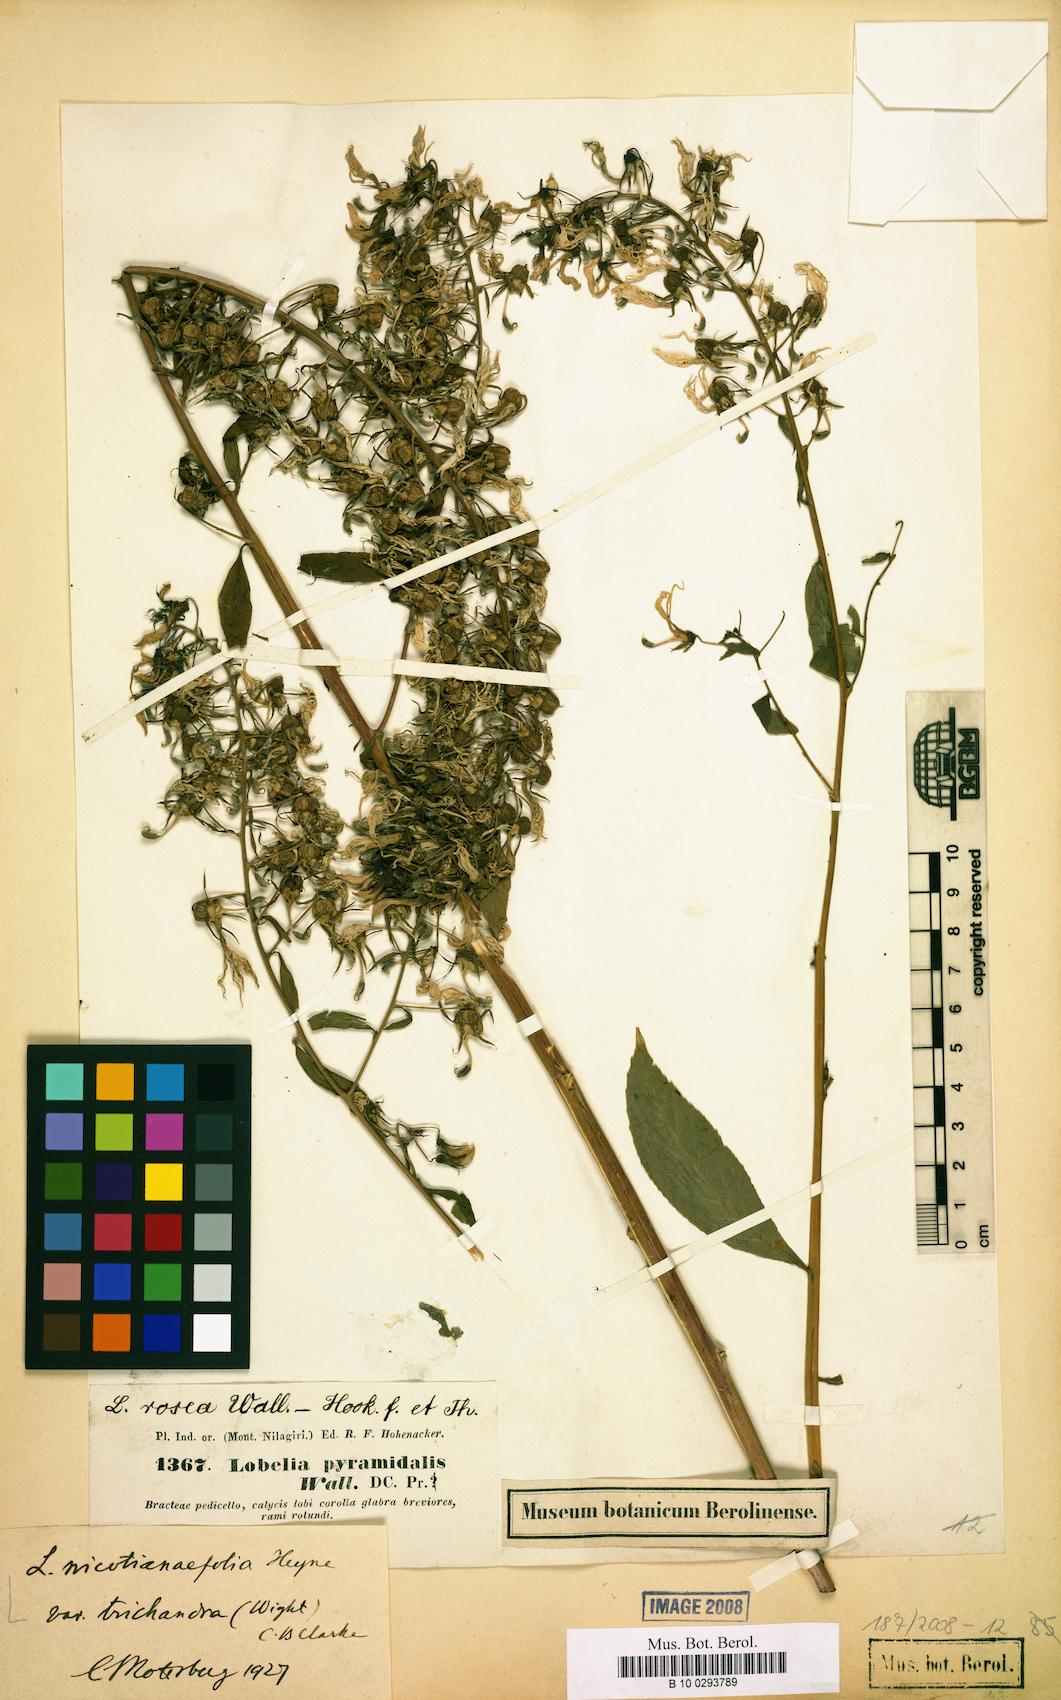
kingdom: Plantae
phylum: Tracheophyta
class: Magnoliopsida
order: Asterales
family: Campanulaceae
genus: Lobelia
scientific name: Lobelia nicotianifolia
